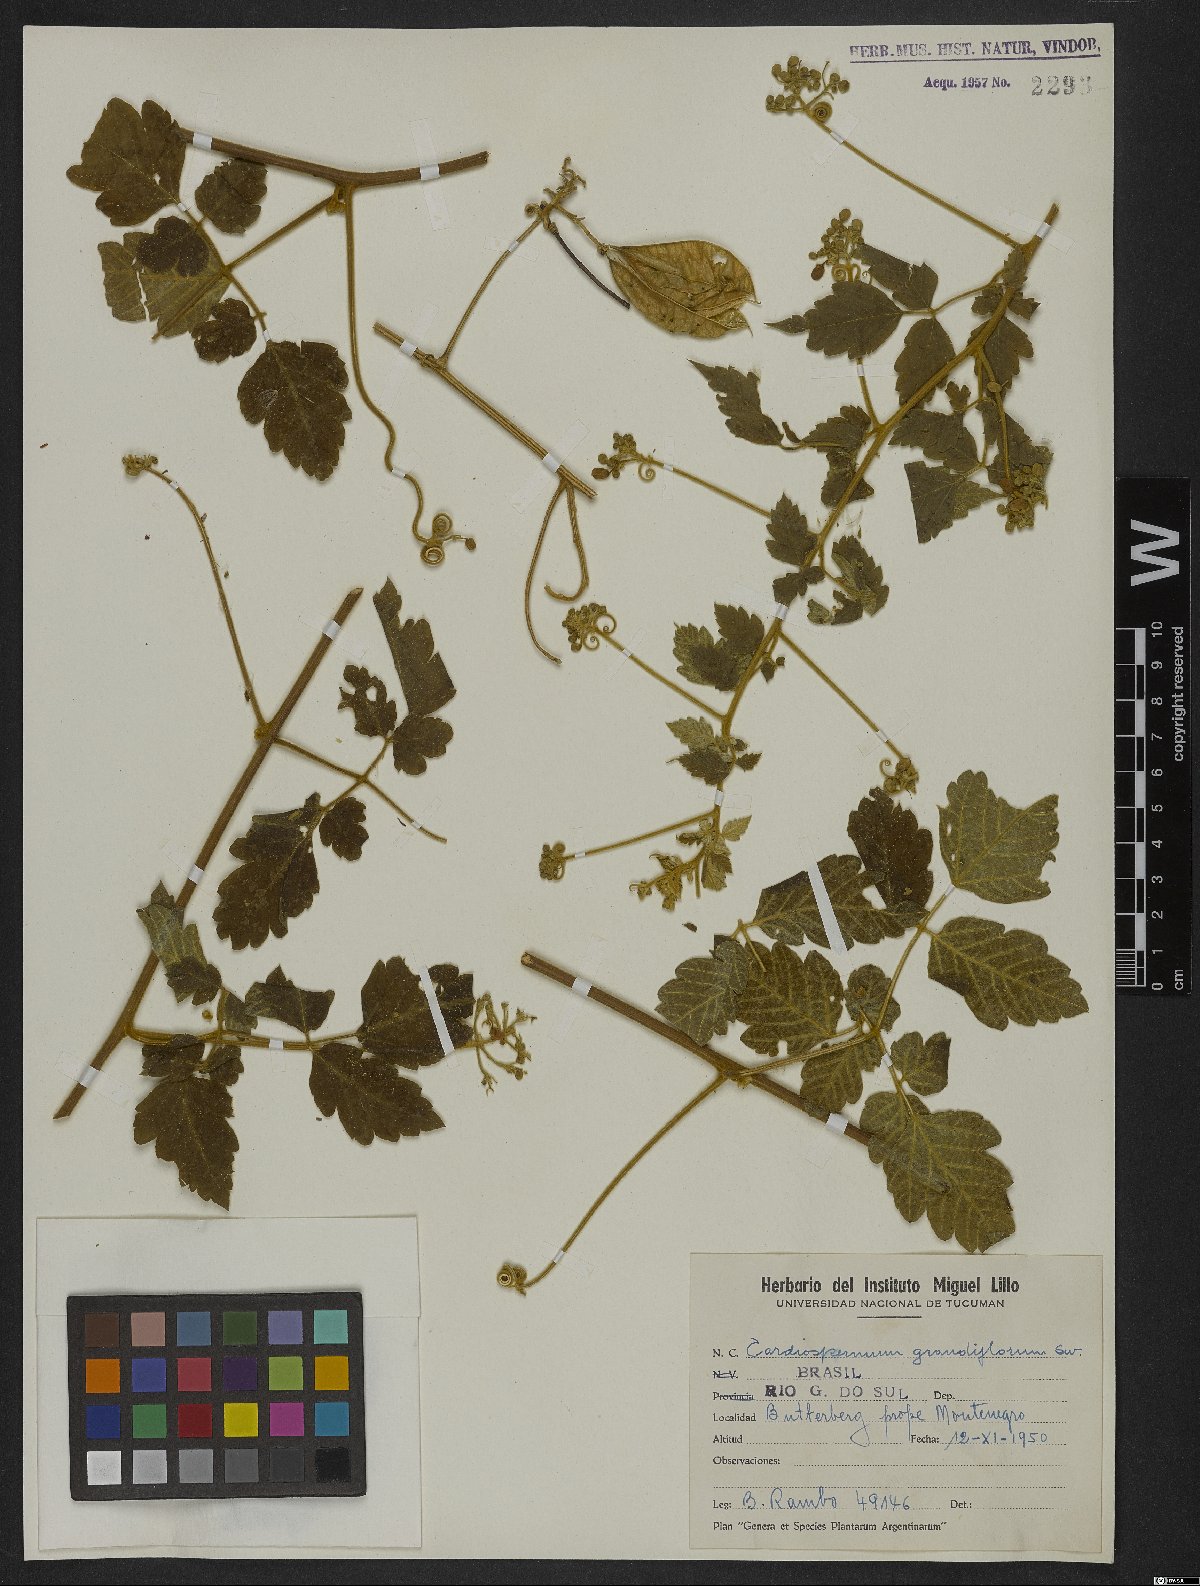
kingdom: Plantae
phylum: Tracheophyta
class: Magnoliopsida
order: Sapindales
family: Sapindaceae
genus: Cardiospermum
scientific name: Cardiospermum grandiflorum
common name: Balloon vine
